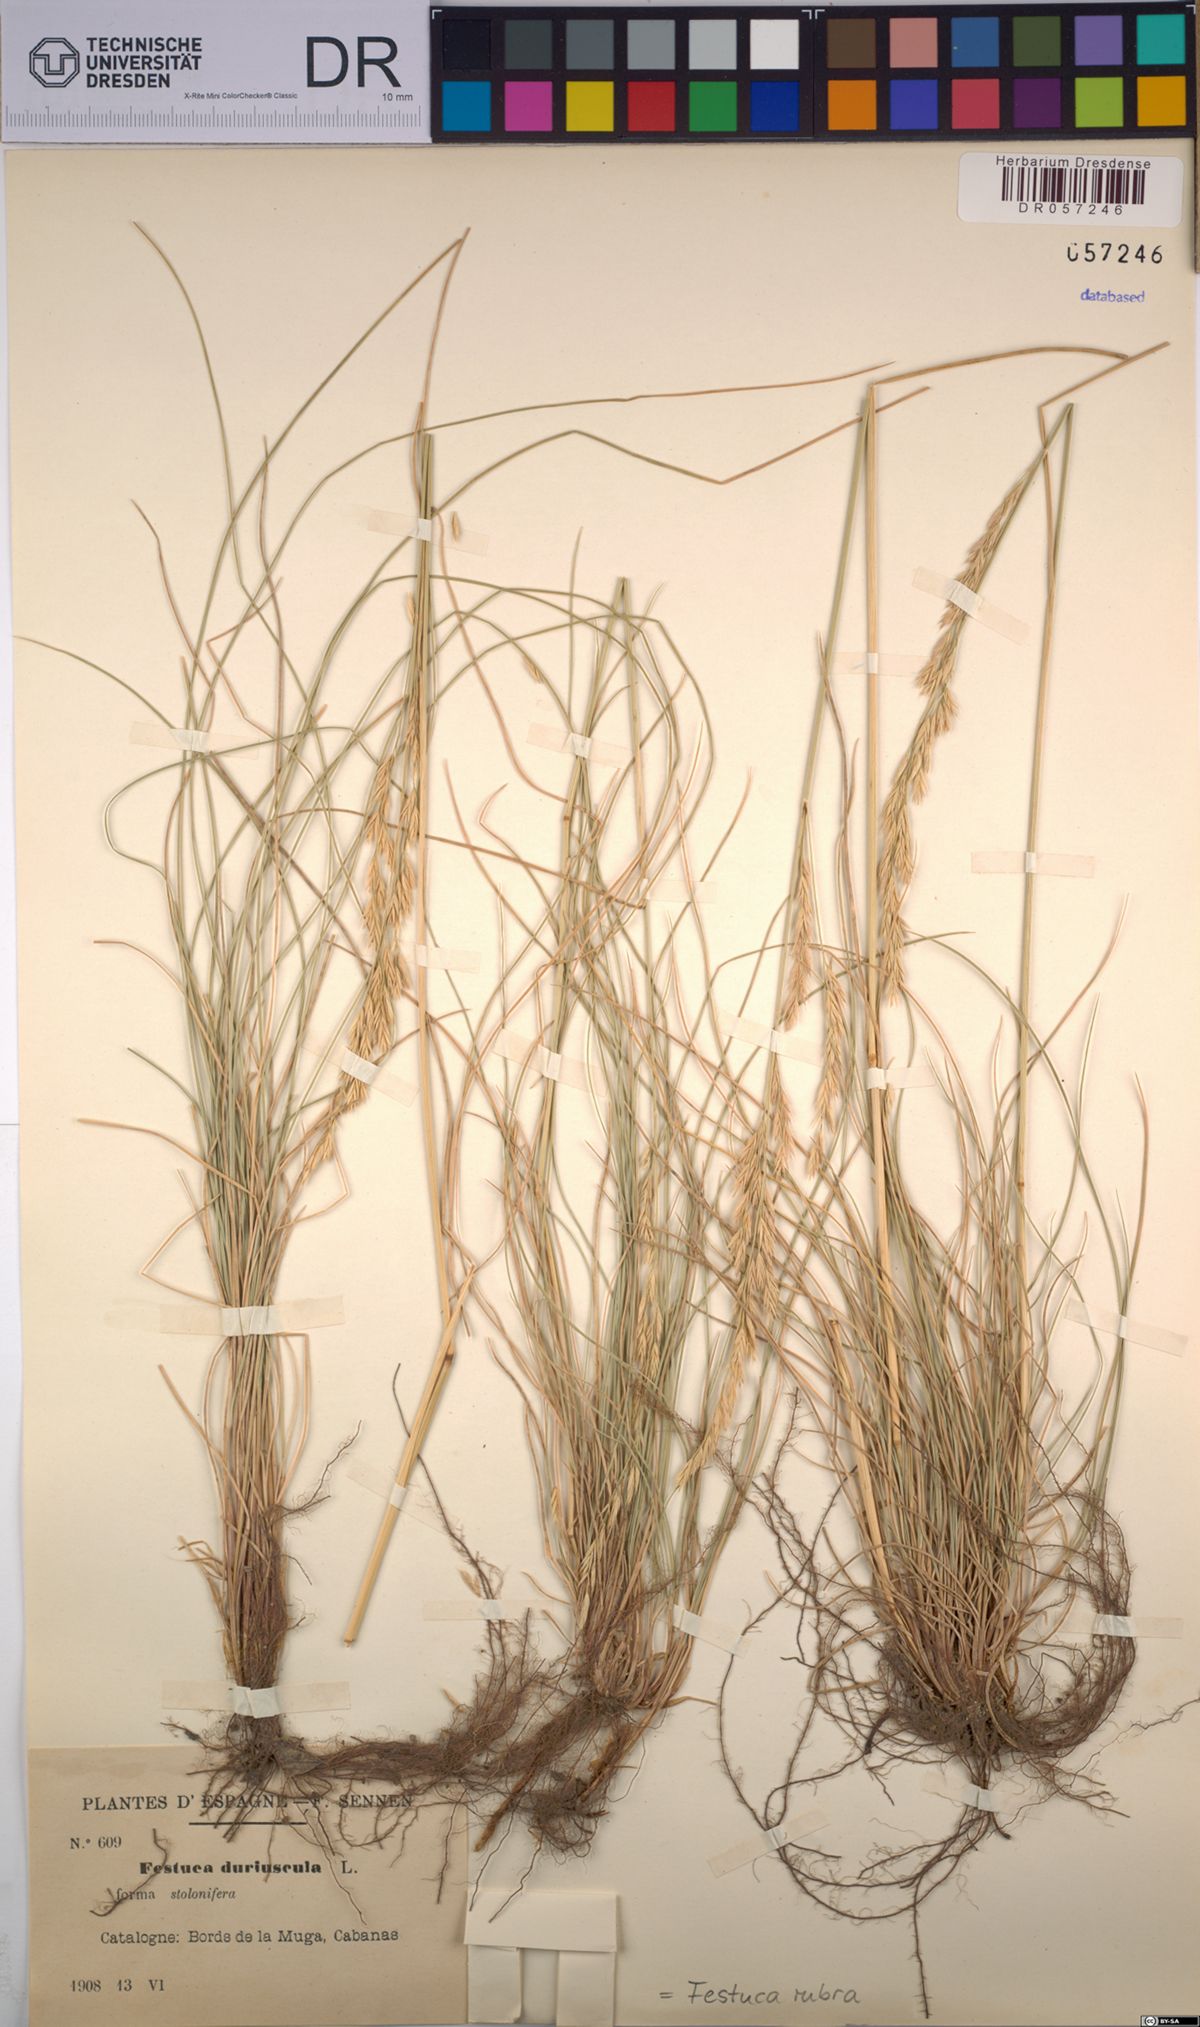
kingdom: Plantae
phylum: Tracheophyta
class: Liliopsida
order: Poales
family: Poaceae
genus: Festuca
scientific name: Festuca rubra
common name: Red fescue
